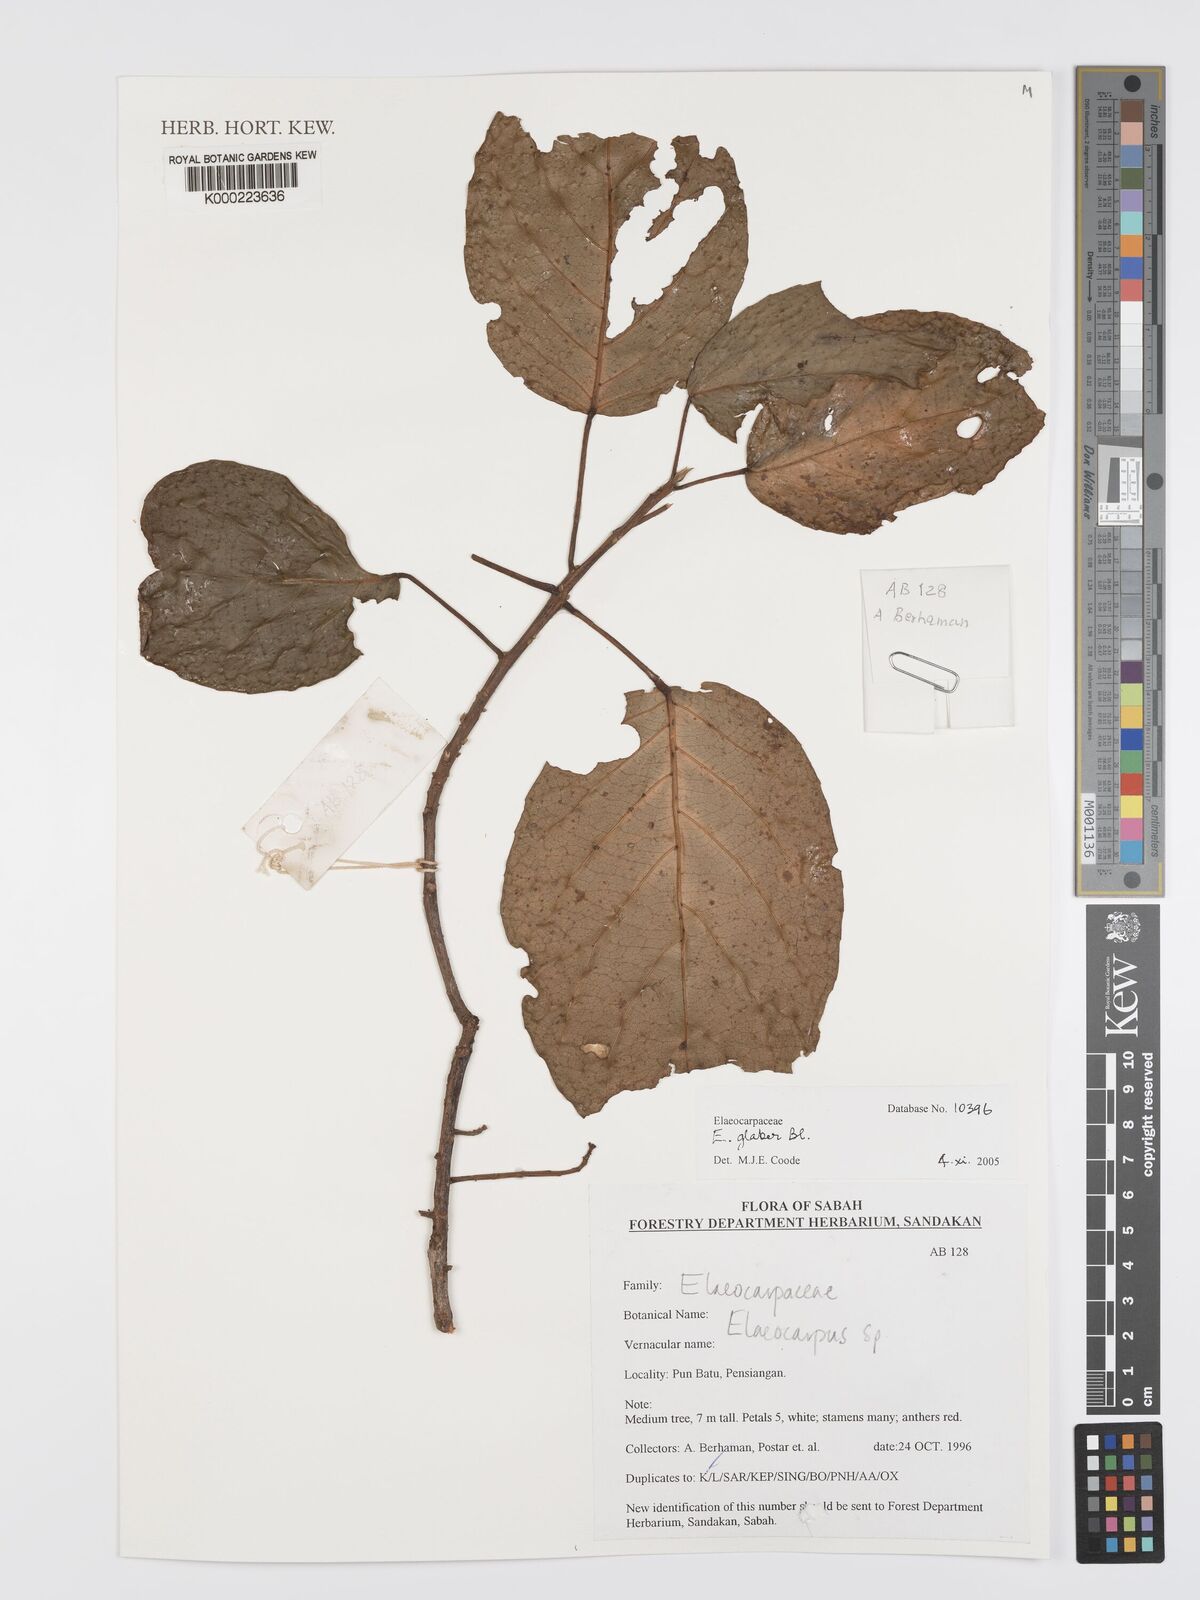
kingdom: Plantae
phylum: Tracheophyta
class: Magnoliopsida
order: Oxalidales
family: Elaeocarpaceae
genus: Elaeocarpus
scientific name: Elaeocarpus glaber
